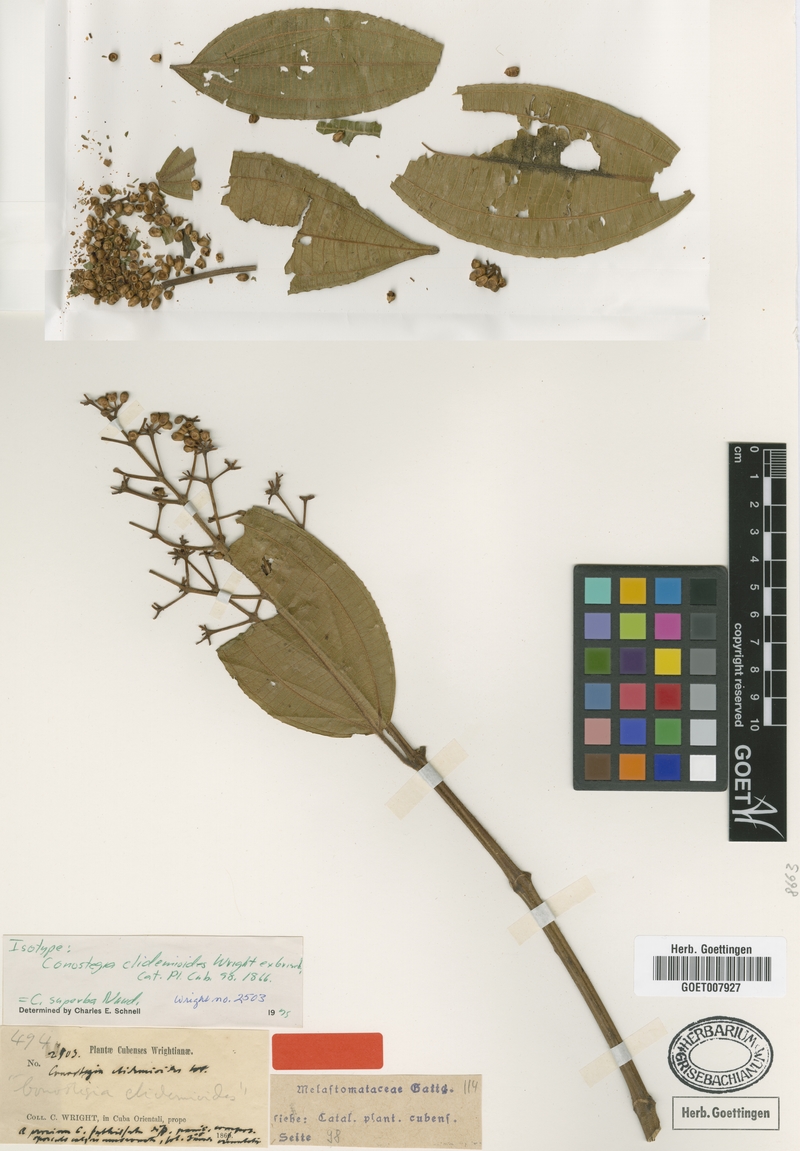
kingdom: Plantae
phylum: Tracheophyta
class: Magnoliopsida
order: Myrtales
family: Melastomataceae
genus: Miconia
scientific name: Miconia baillonii
